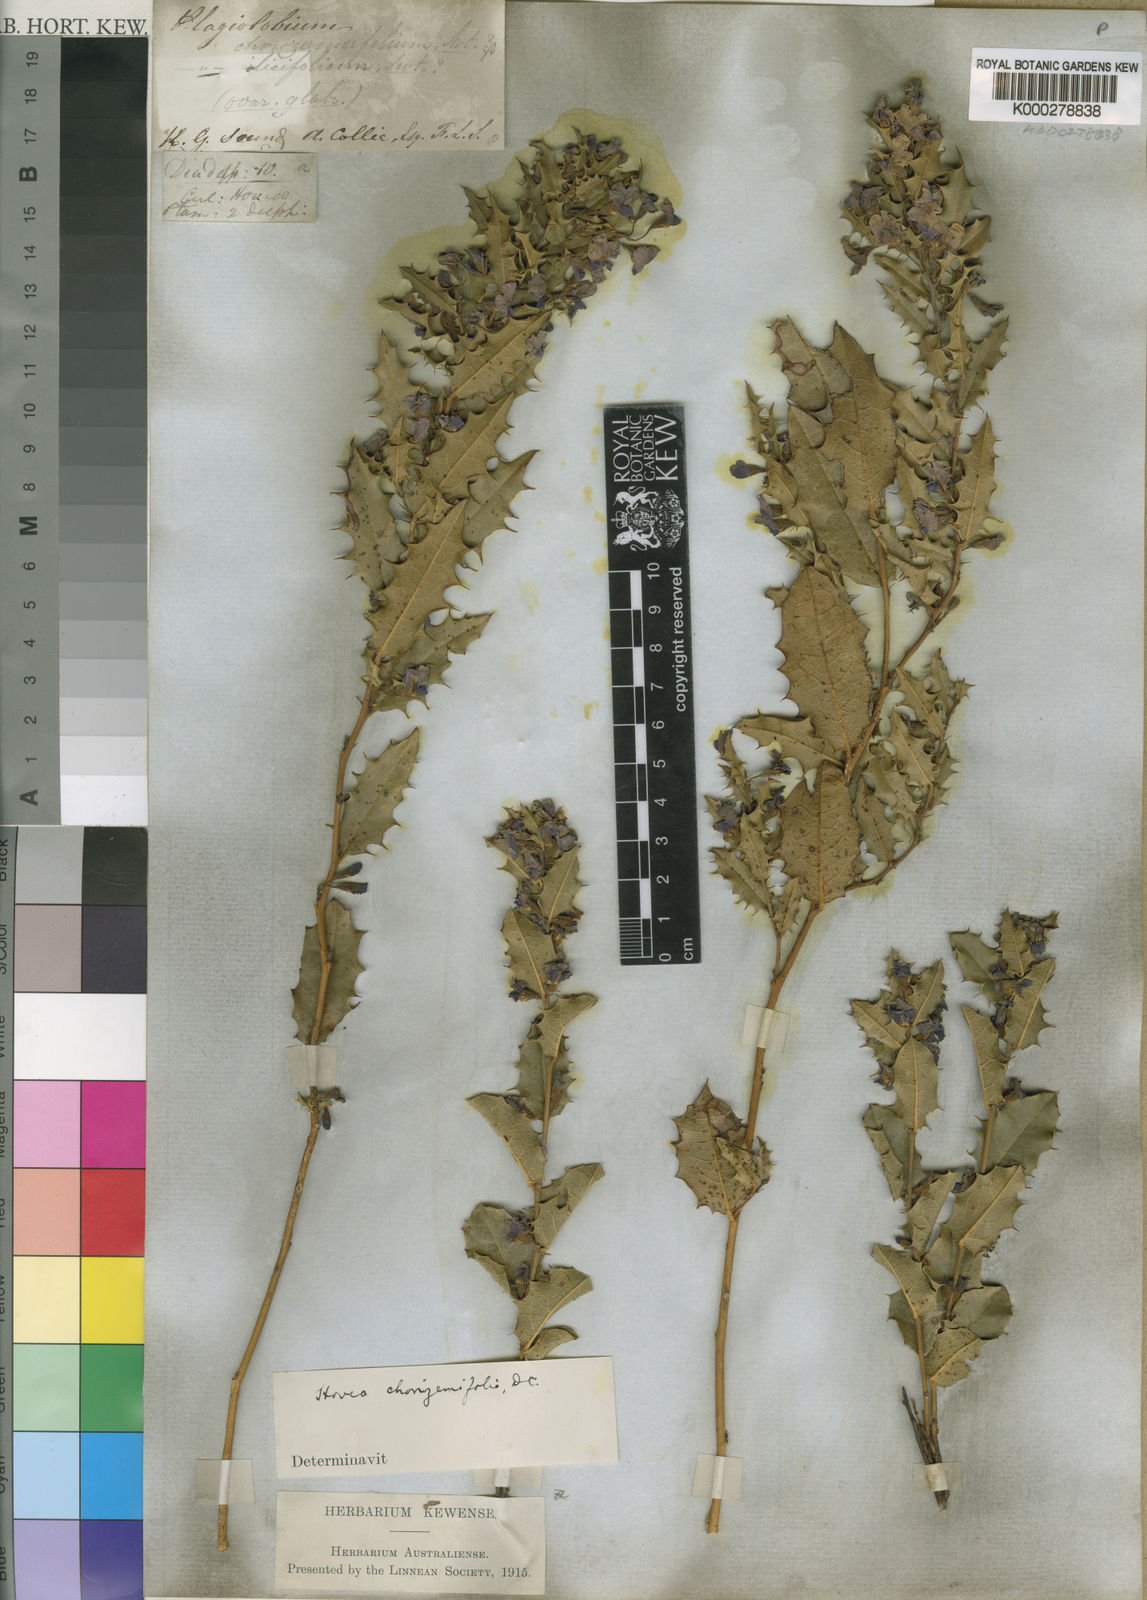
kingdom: Plantae
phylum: Tracheophyta
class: Magnoliopsida
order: Fabales
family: Fabaceae
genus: Hovea
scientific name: Hovea chorizemifolia
